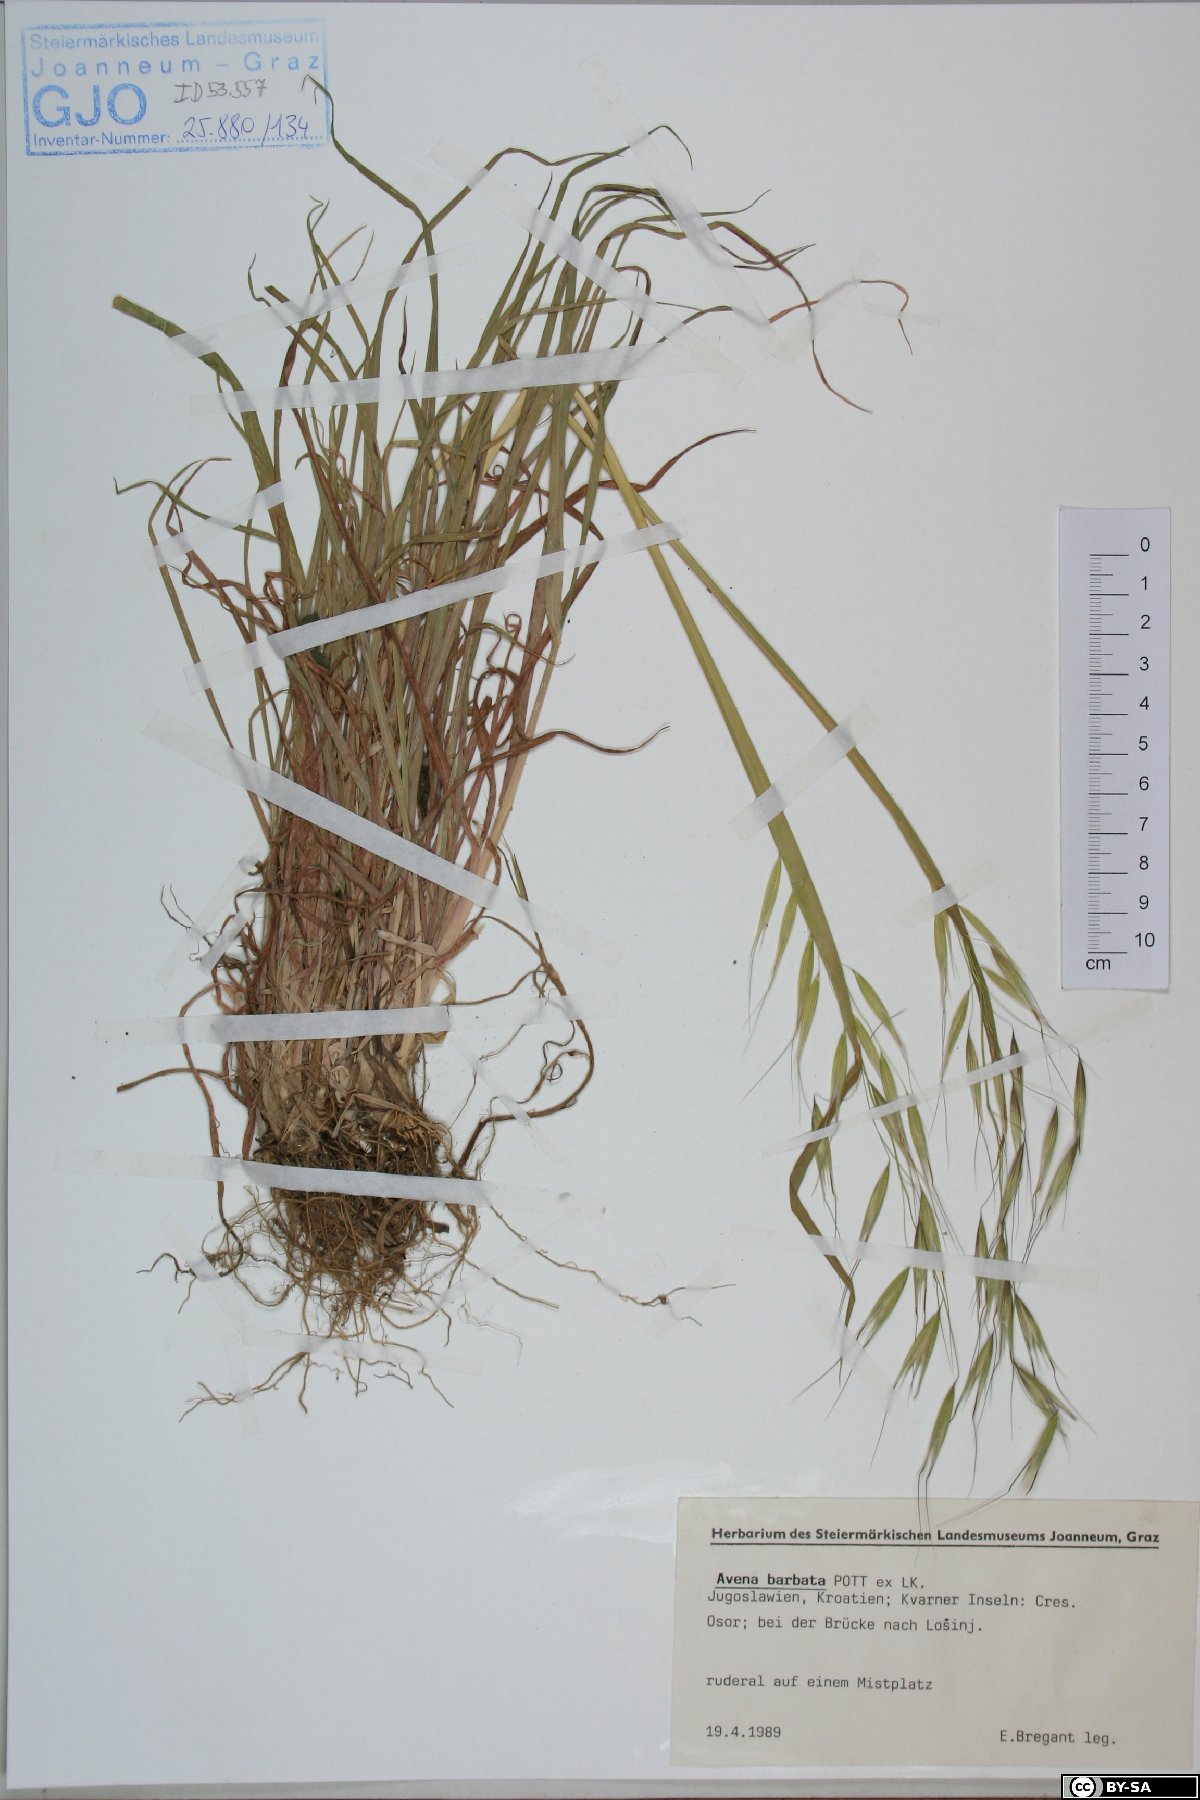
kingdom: Plantae
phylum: Tracheophyta
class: Liliopsida
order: Poales
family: Poaceae
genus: Avena
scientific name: Avena barbata
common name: Slender oat
